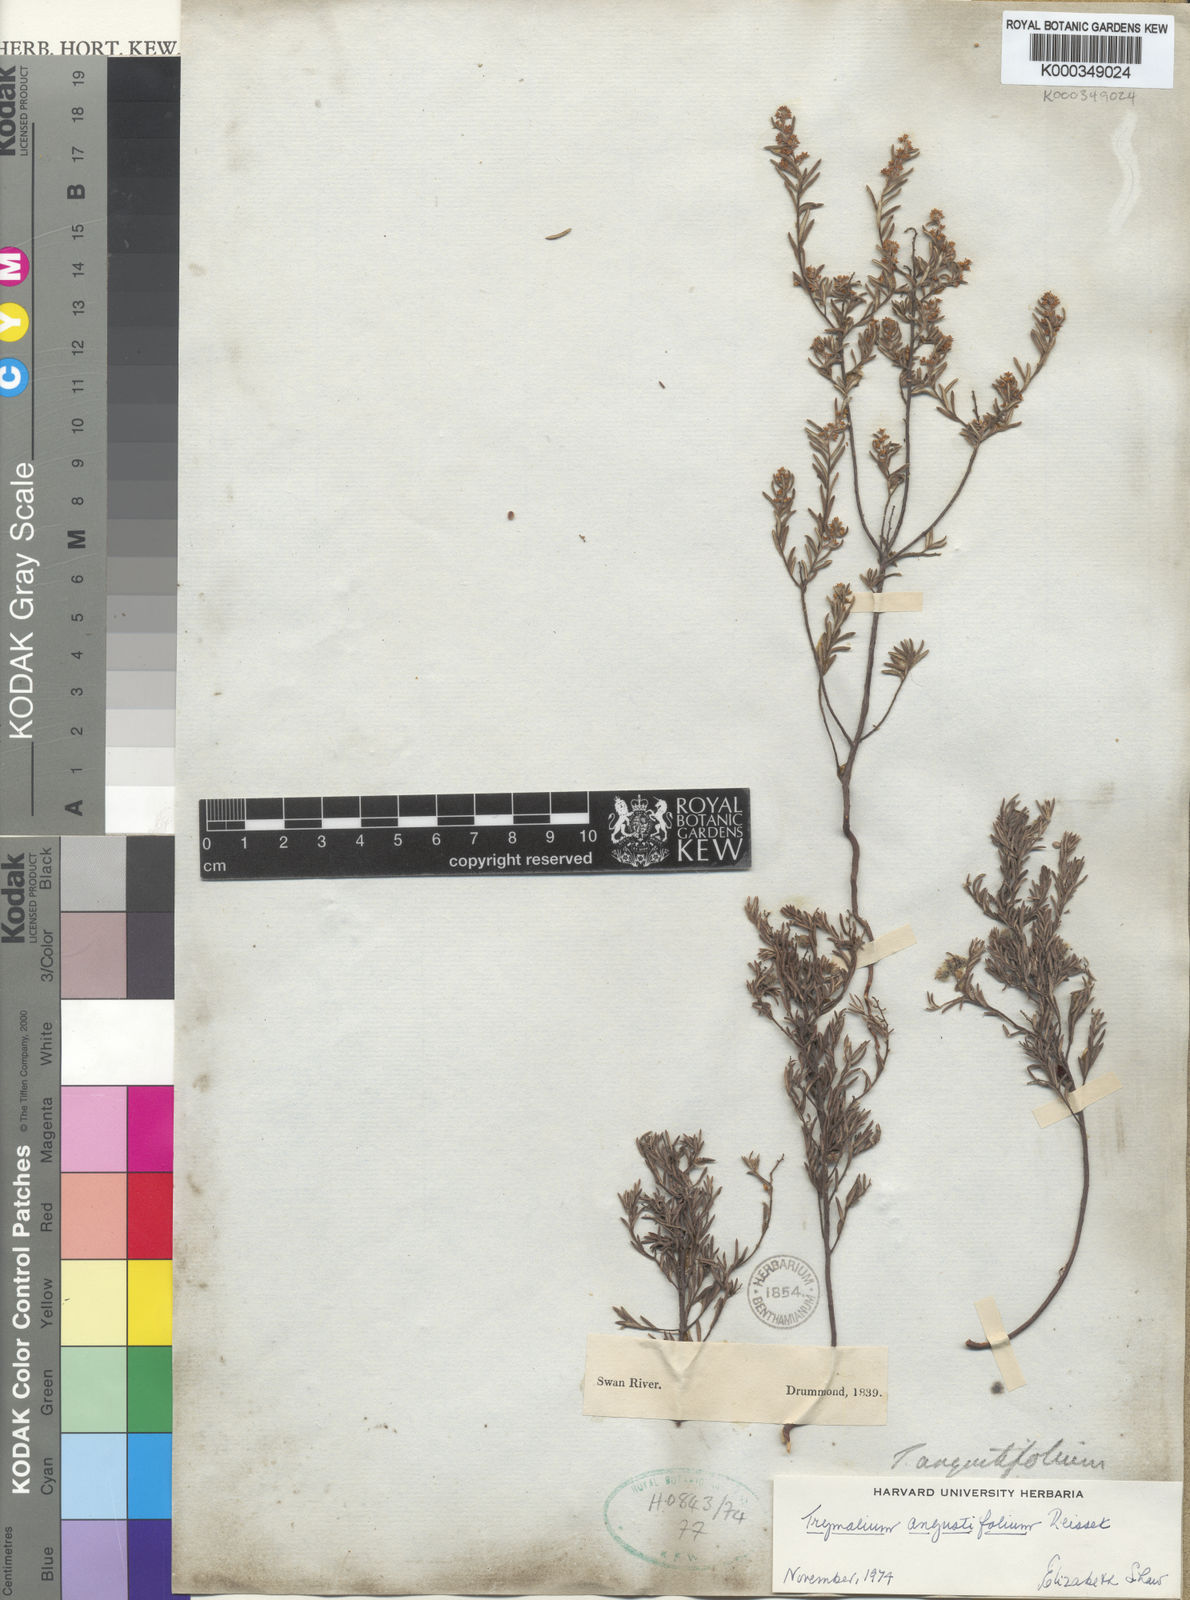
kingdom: Plantae
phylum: Tracheophyta
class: Magnoliopsida
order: Rosales
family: Rhamnaceae
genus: Trymalium
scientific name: Trymalium angustifolium
